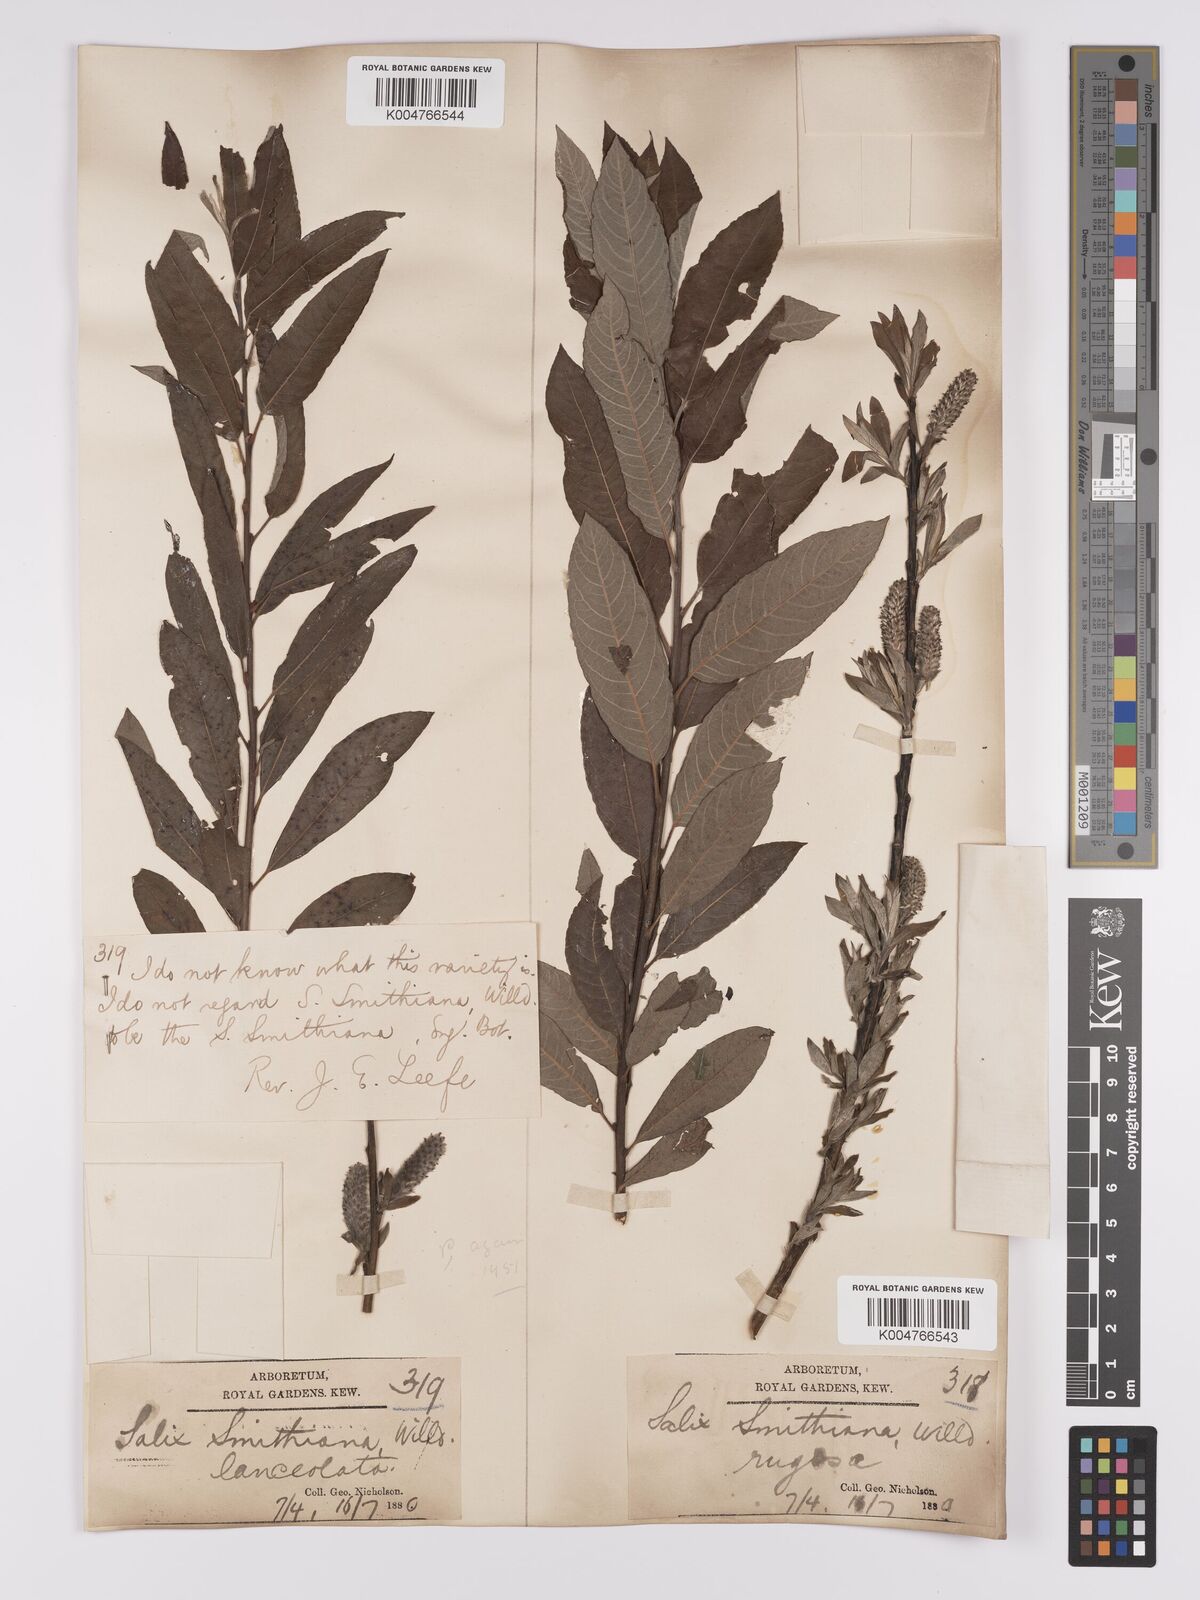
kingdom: Plantae
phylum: Tracheophyta
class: Magnoliopsida
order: Malpighiales
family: Salicaceae
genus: Salix
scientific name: Salix caprea
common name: Goat willow
